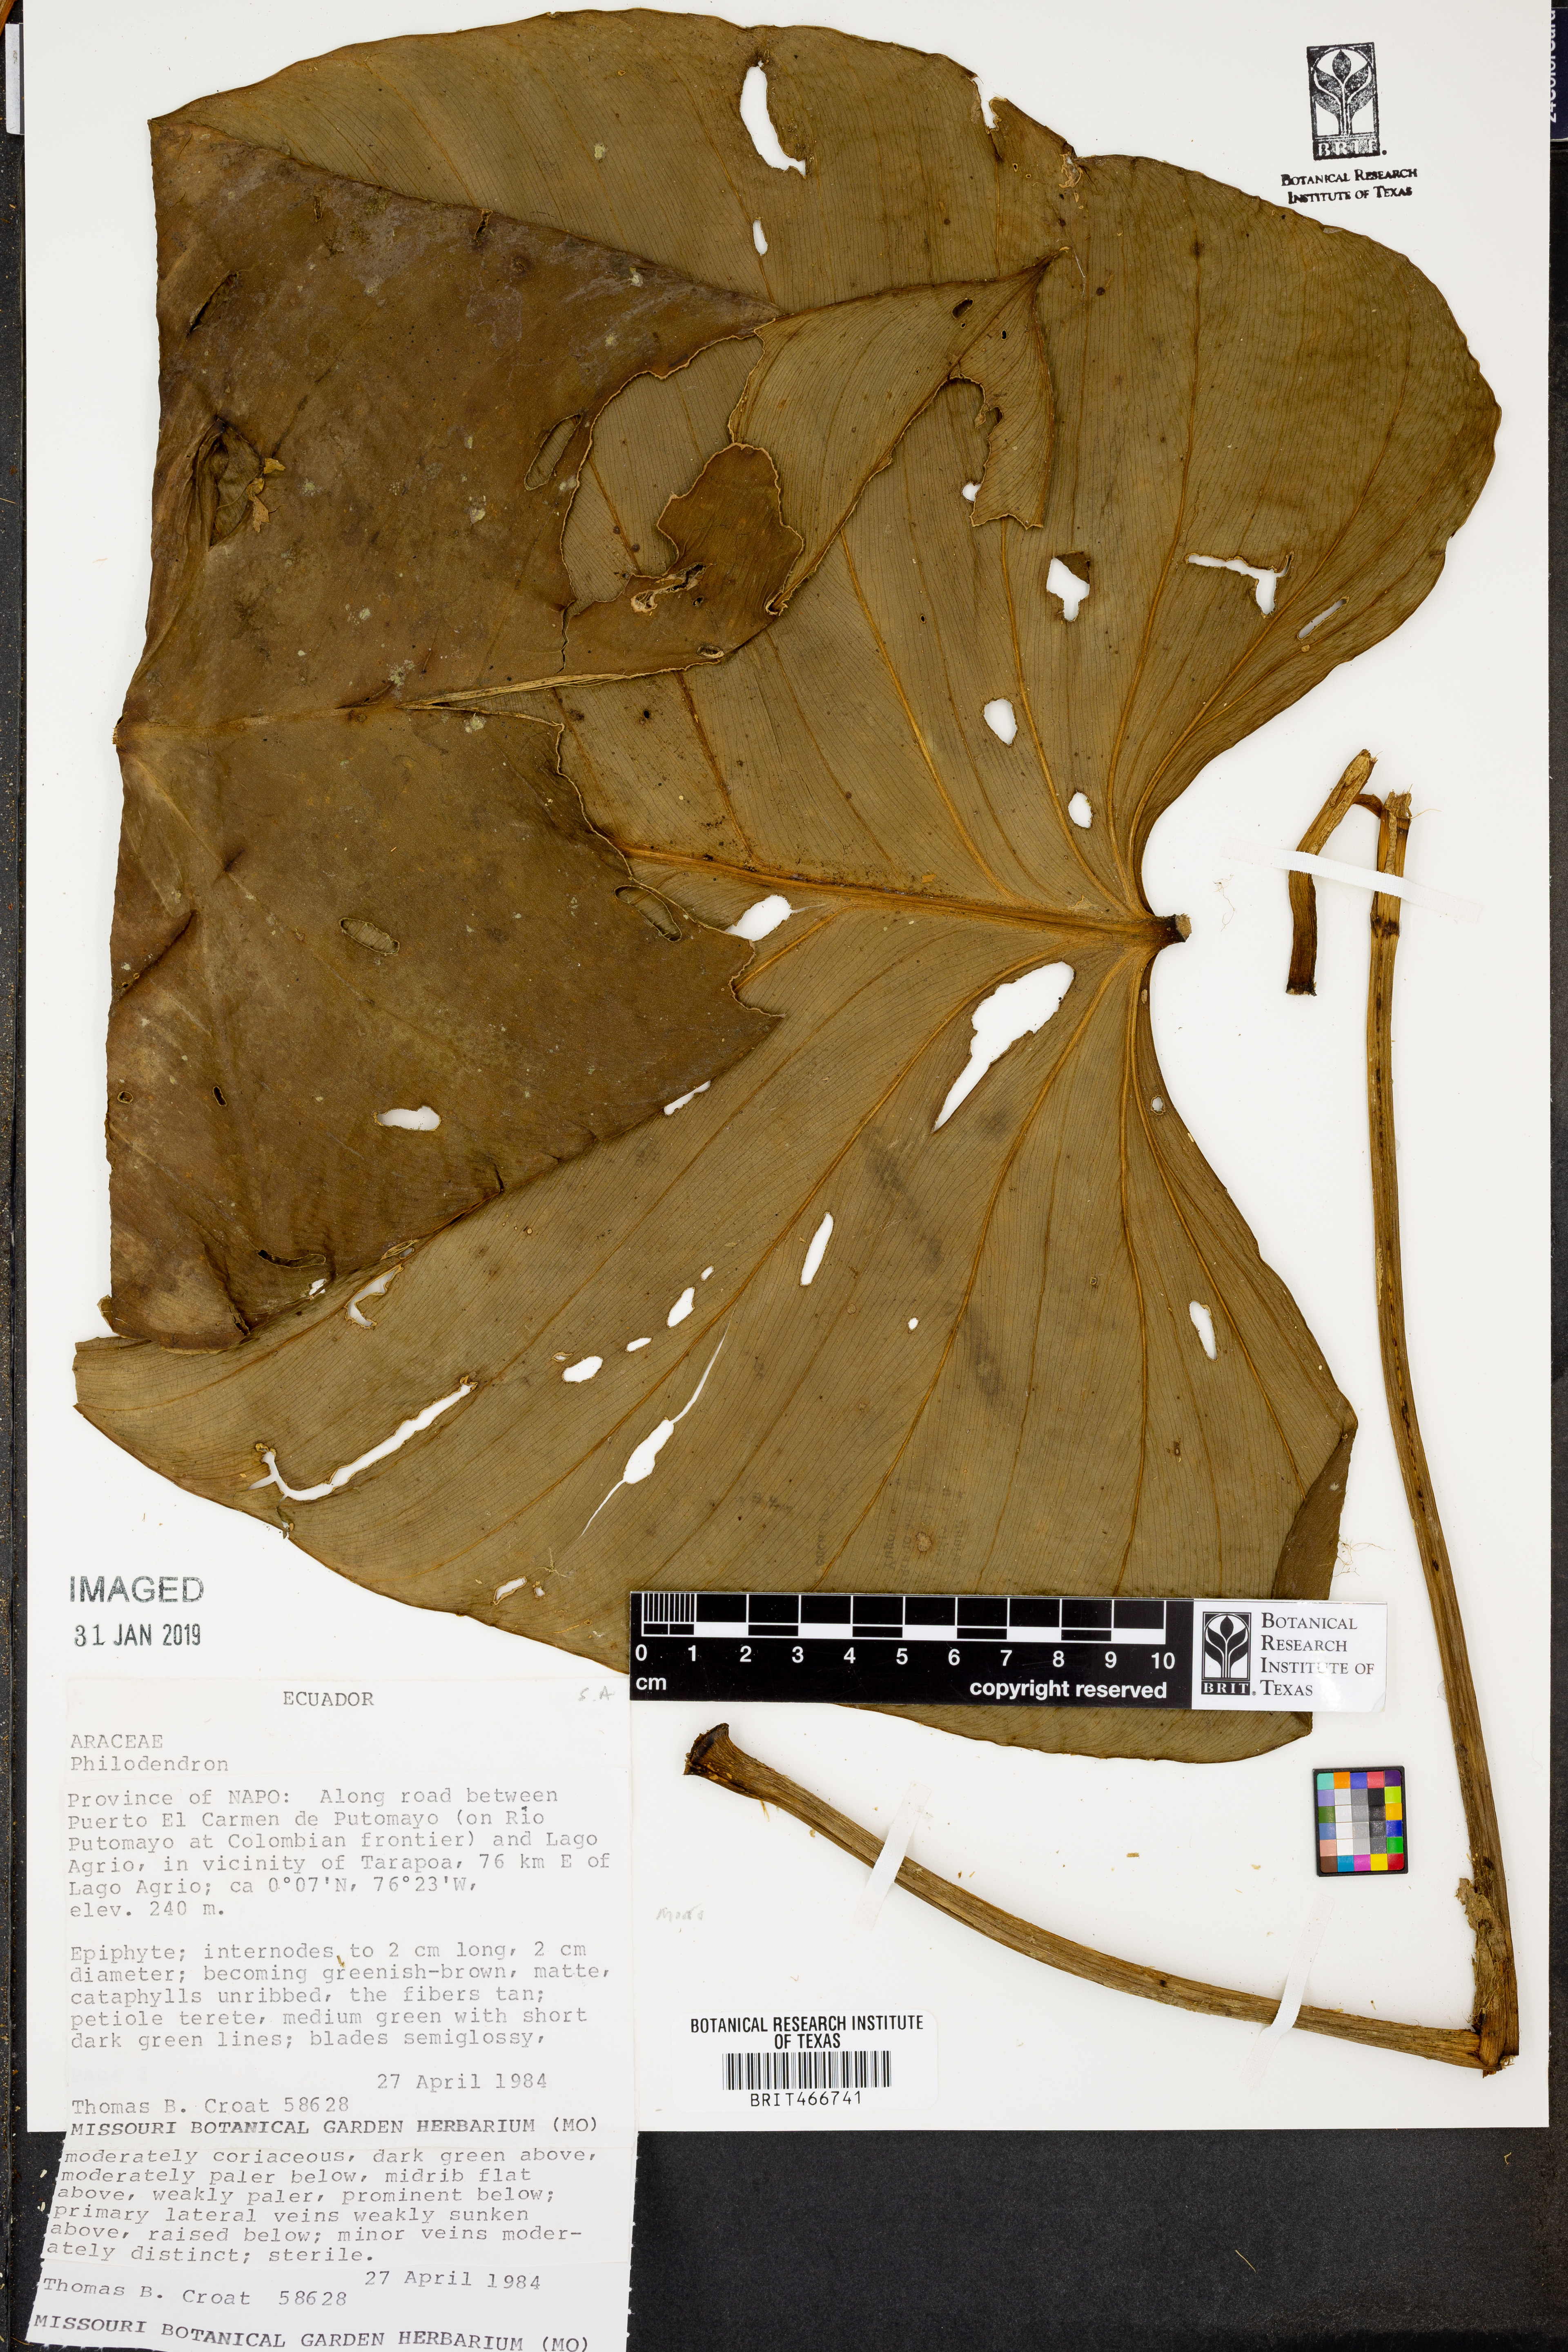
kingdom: Plantae
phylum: Tracheophyta
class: Liliopsida
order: Alismatales
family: Araceae
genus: Philodendron
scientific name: Philodendron
